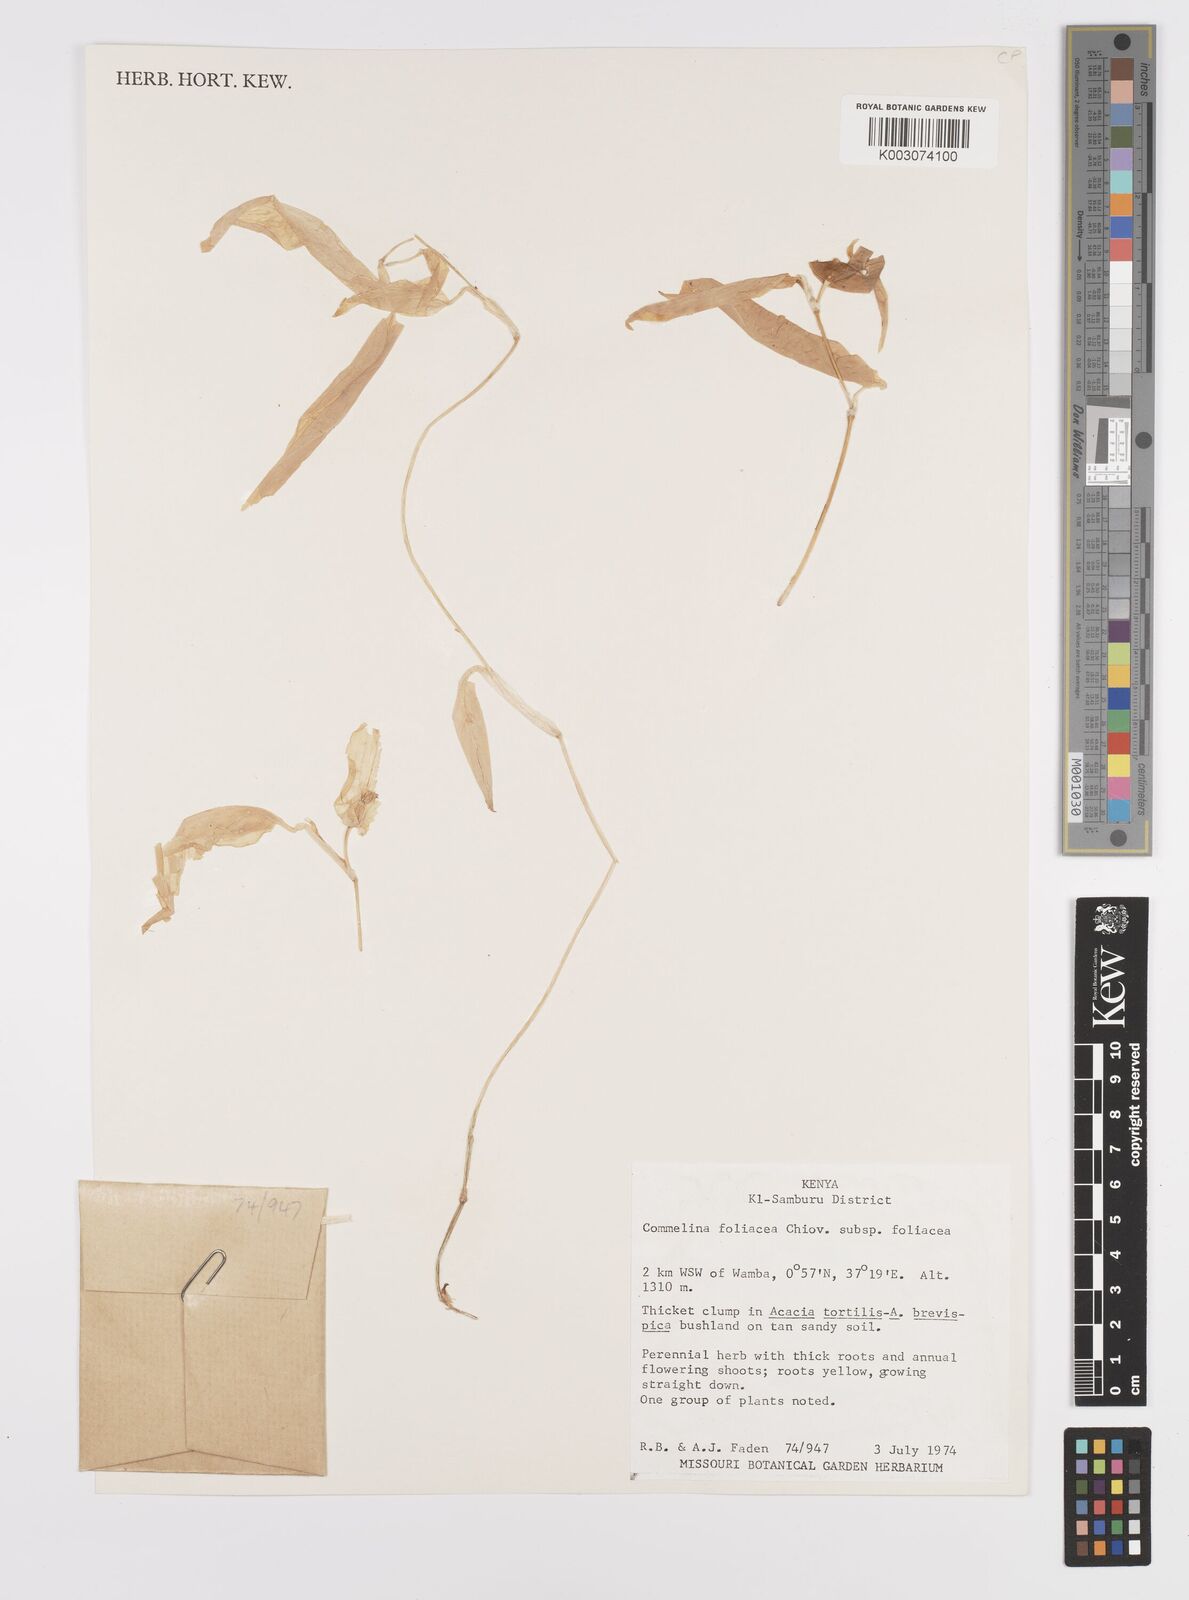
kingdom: Plantae
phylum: Tracheophyta
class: Liliopsida
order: Commelinales
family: Commelinaceae
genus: Commelina
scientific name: Commelina foliacea
